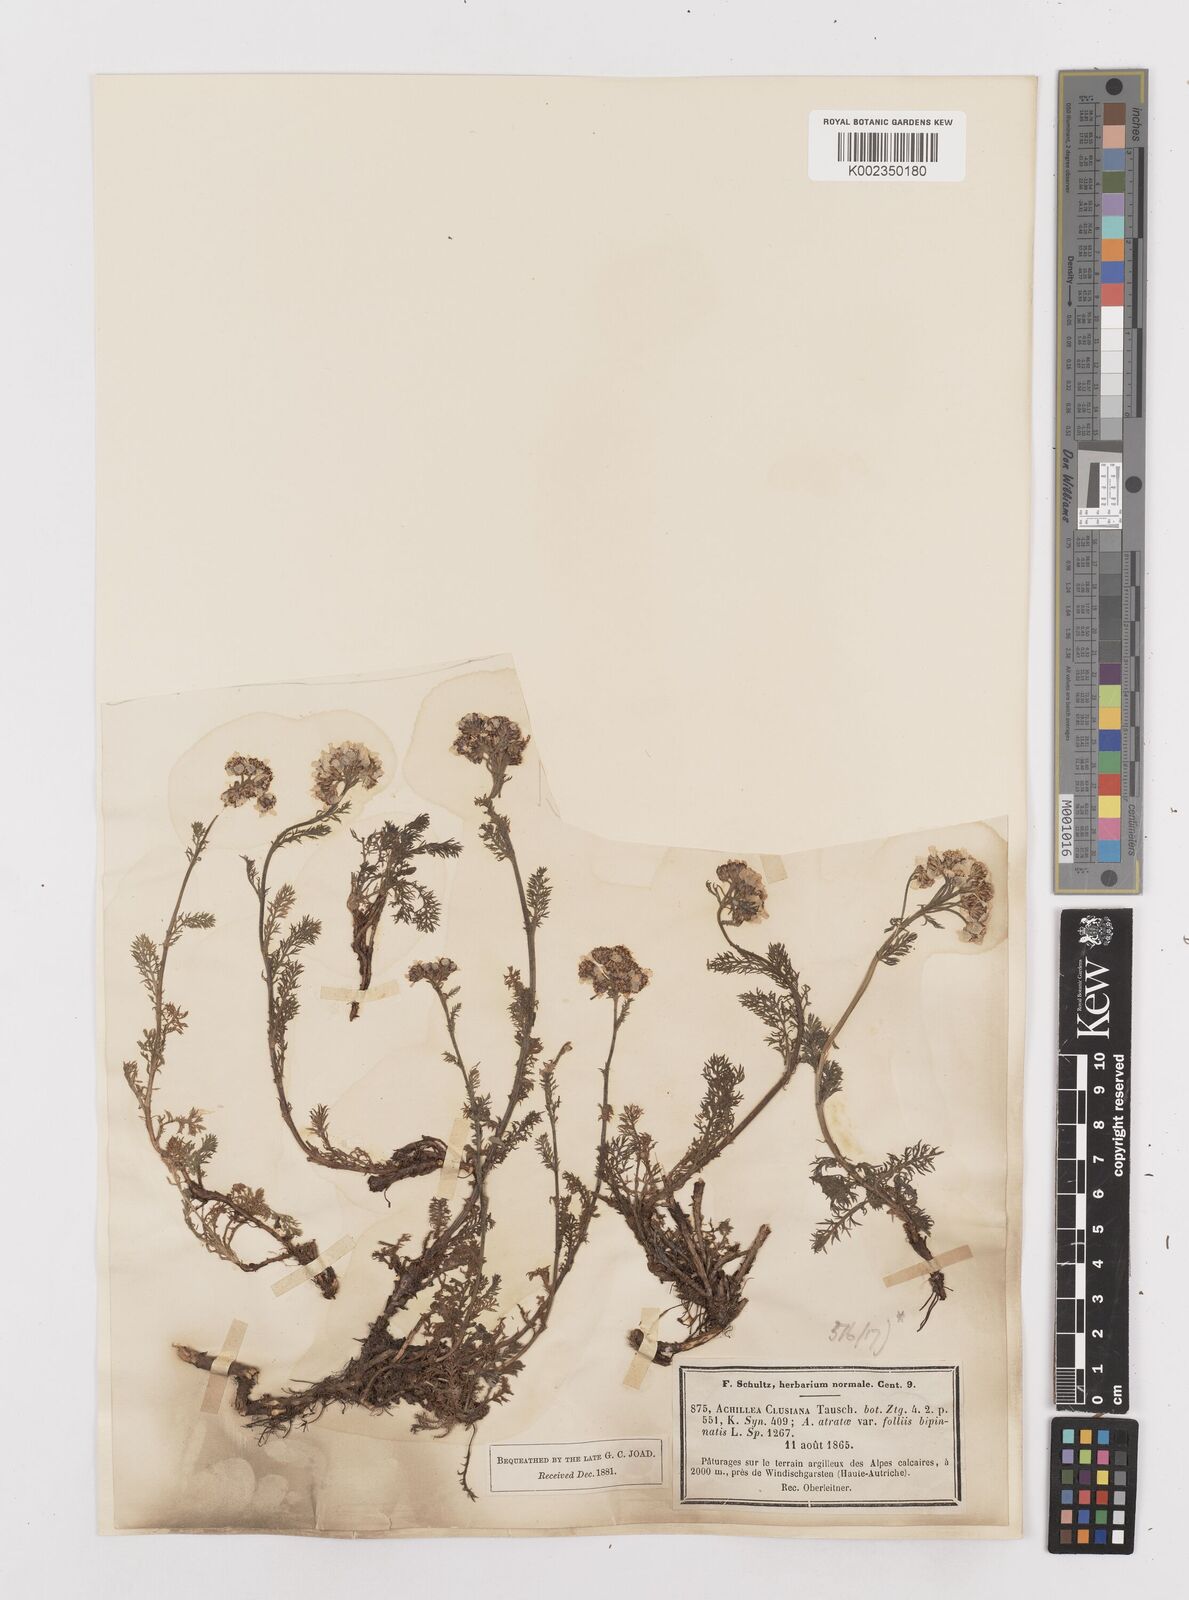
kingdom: Plantae
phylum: Tracheophyta
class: Magnoliopsida
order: Asterales
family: Asteraceae
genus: Achillea
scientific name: Achillea clusiana
